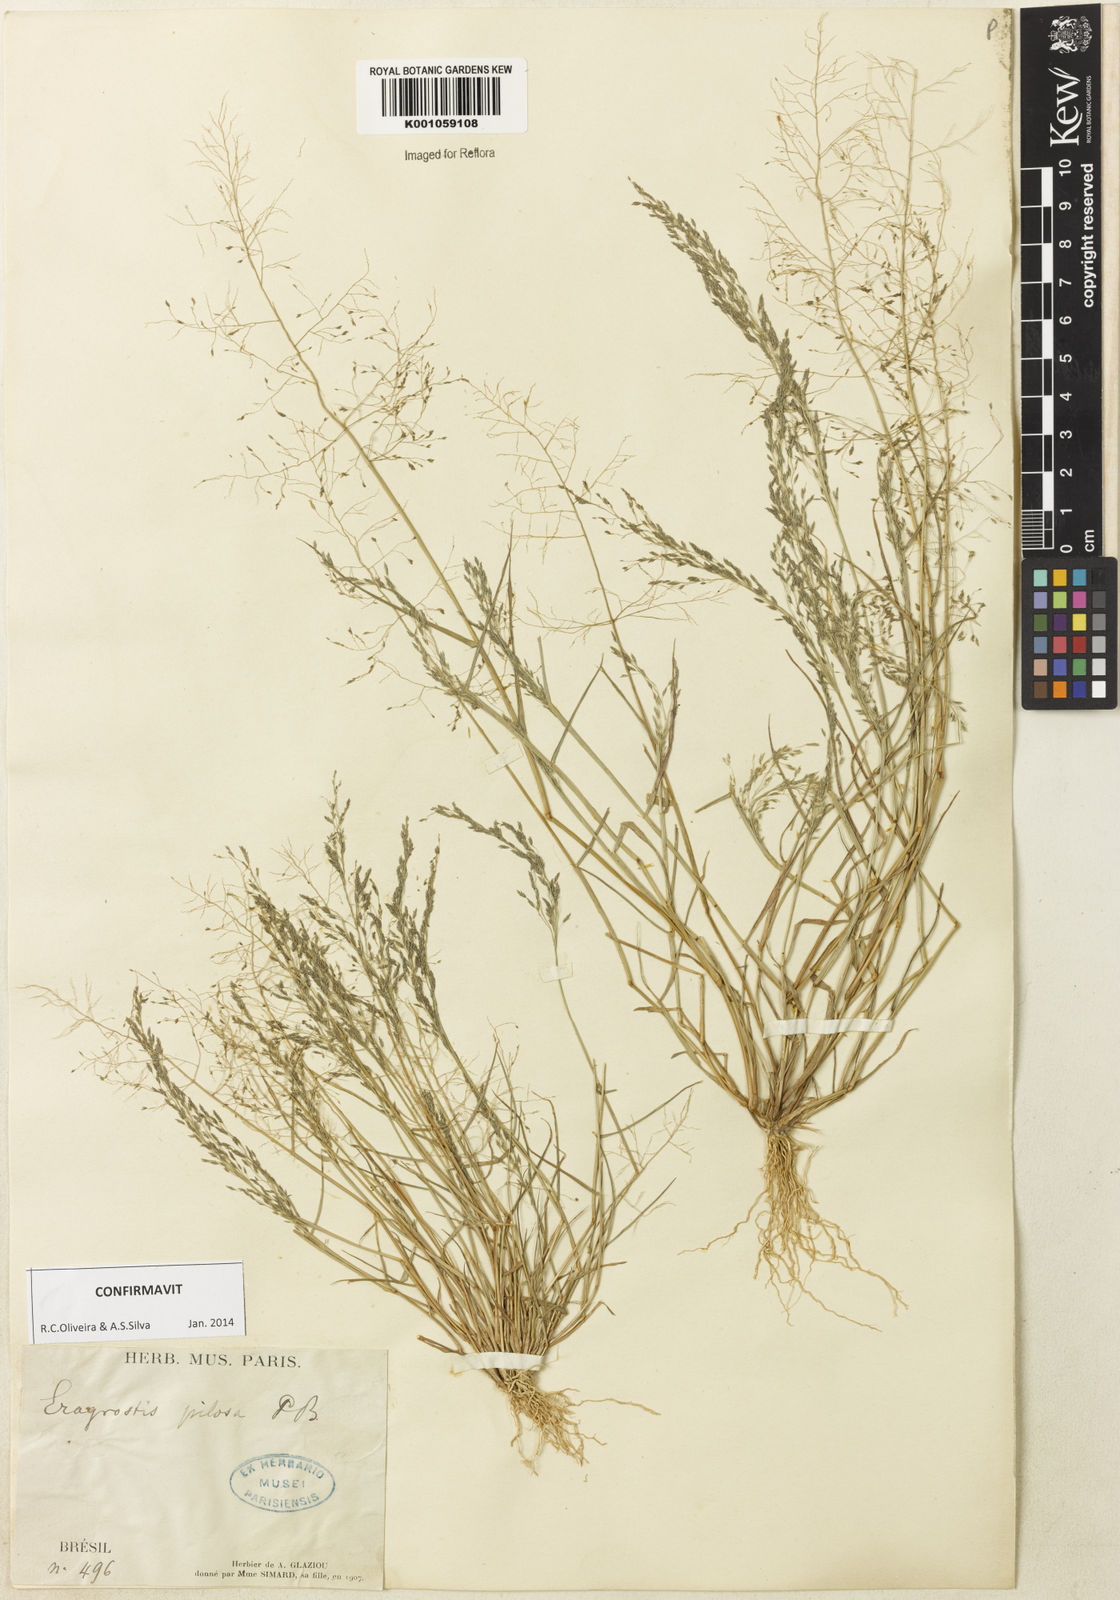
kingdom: Plantae
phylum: Tracheophyta
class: Liliopsida
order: Poales
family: Poaceae
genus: Eragrostis
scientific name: Eragrostis pilosa
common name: Indian lovegrass
